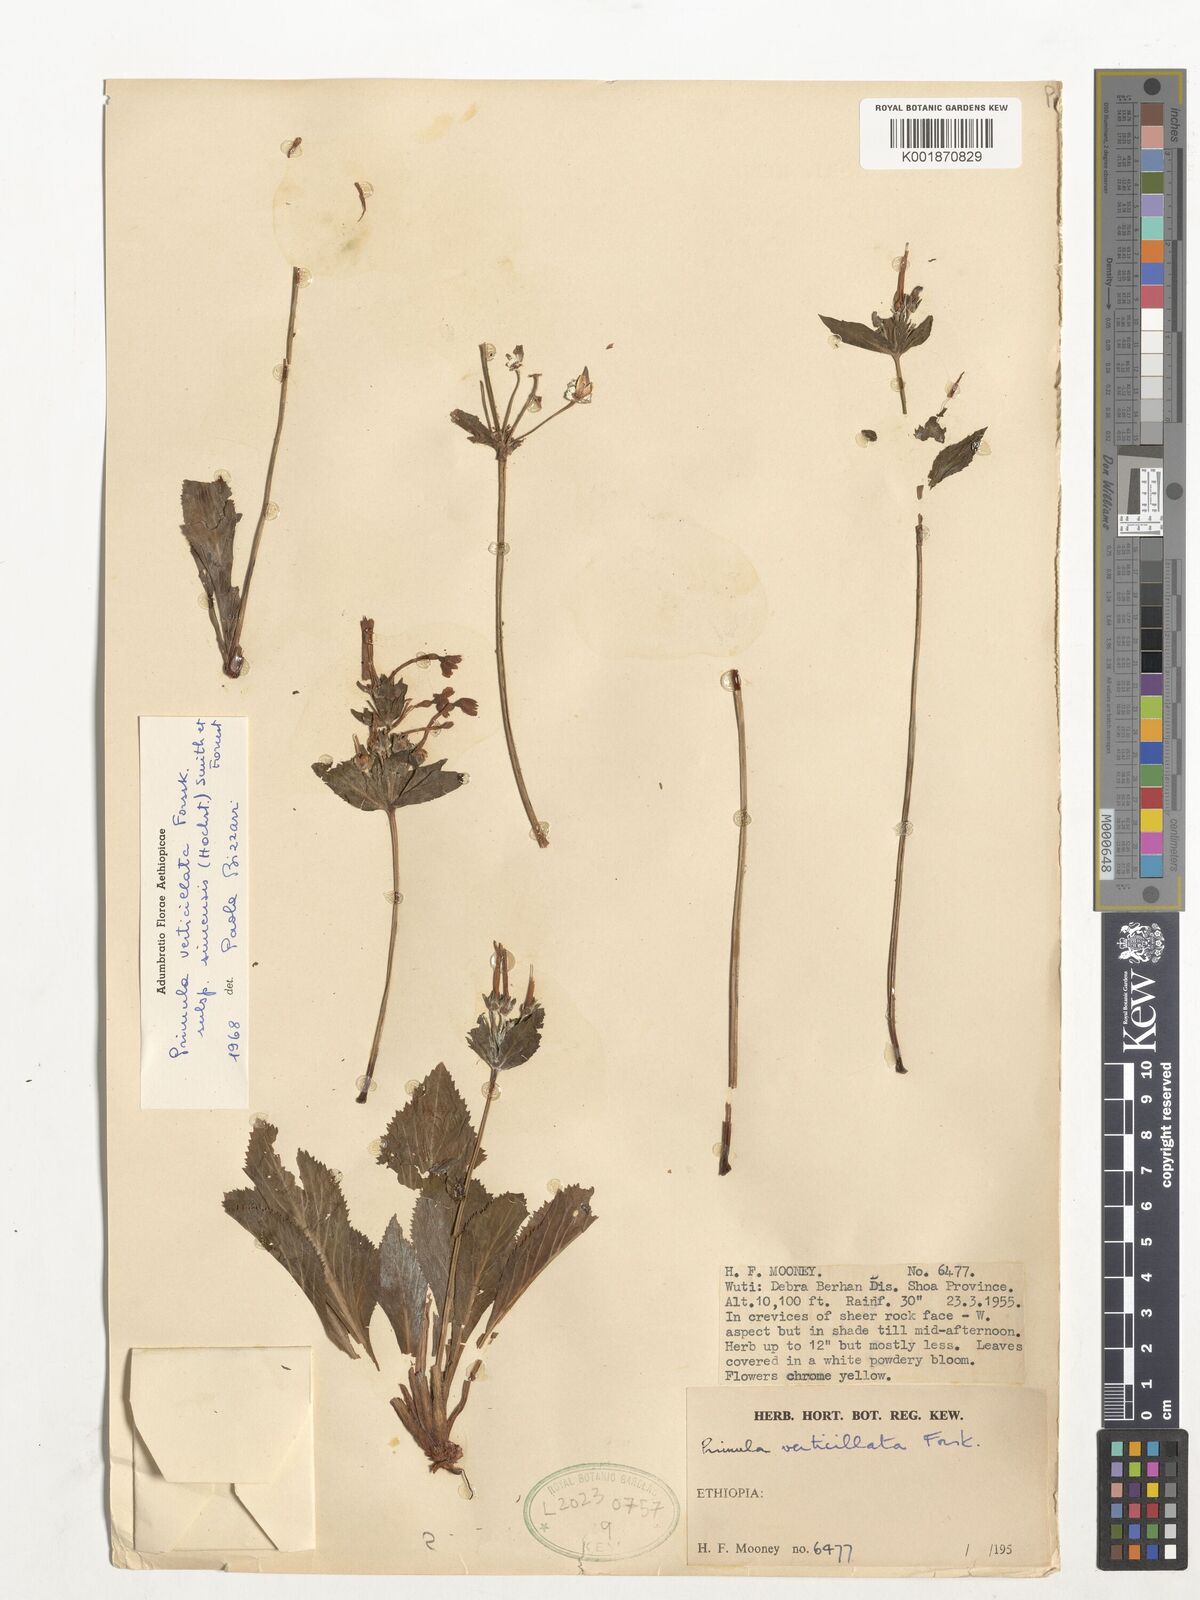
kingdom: Plantae
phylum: Tracheophyta
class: Magnoliopsida
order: Ericales
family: Primulaceae
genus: Evotrochis
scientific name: Evotrochis simensis
